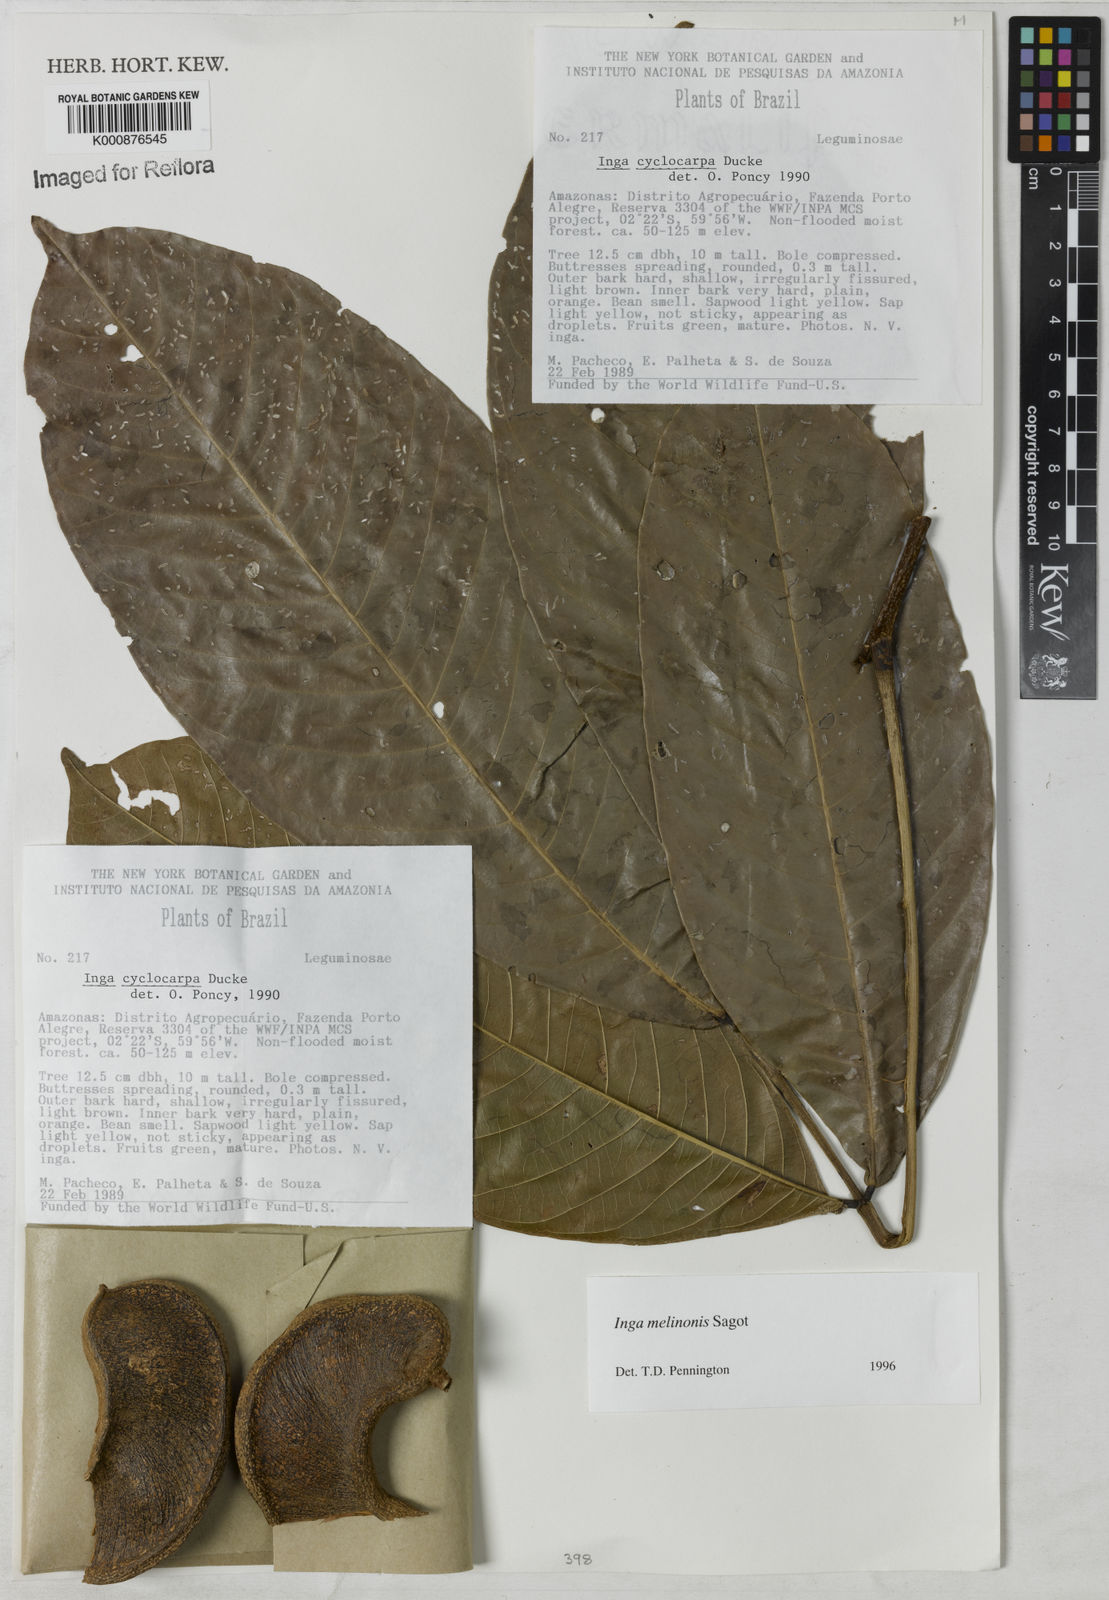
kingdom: Plantae
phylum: Tracheophyta
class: Magnoliopsida
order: Fabales
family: Fabaceae
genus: Inga
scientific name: Inga ruiziana
